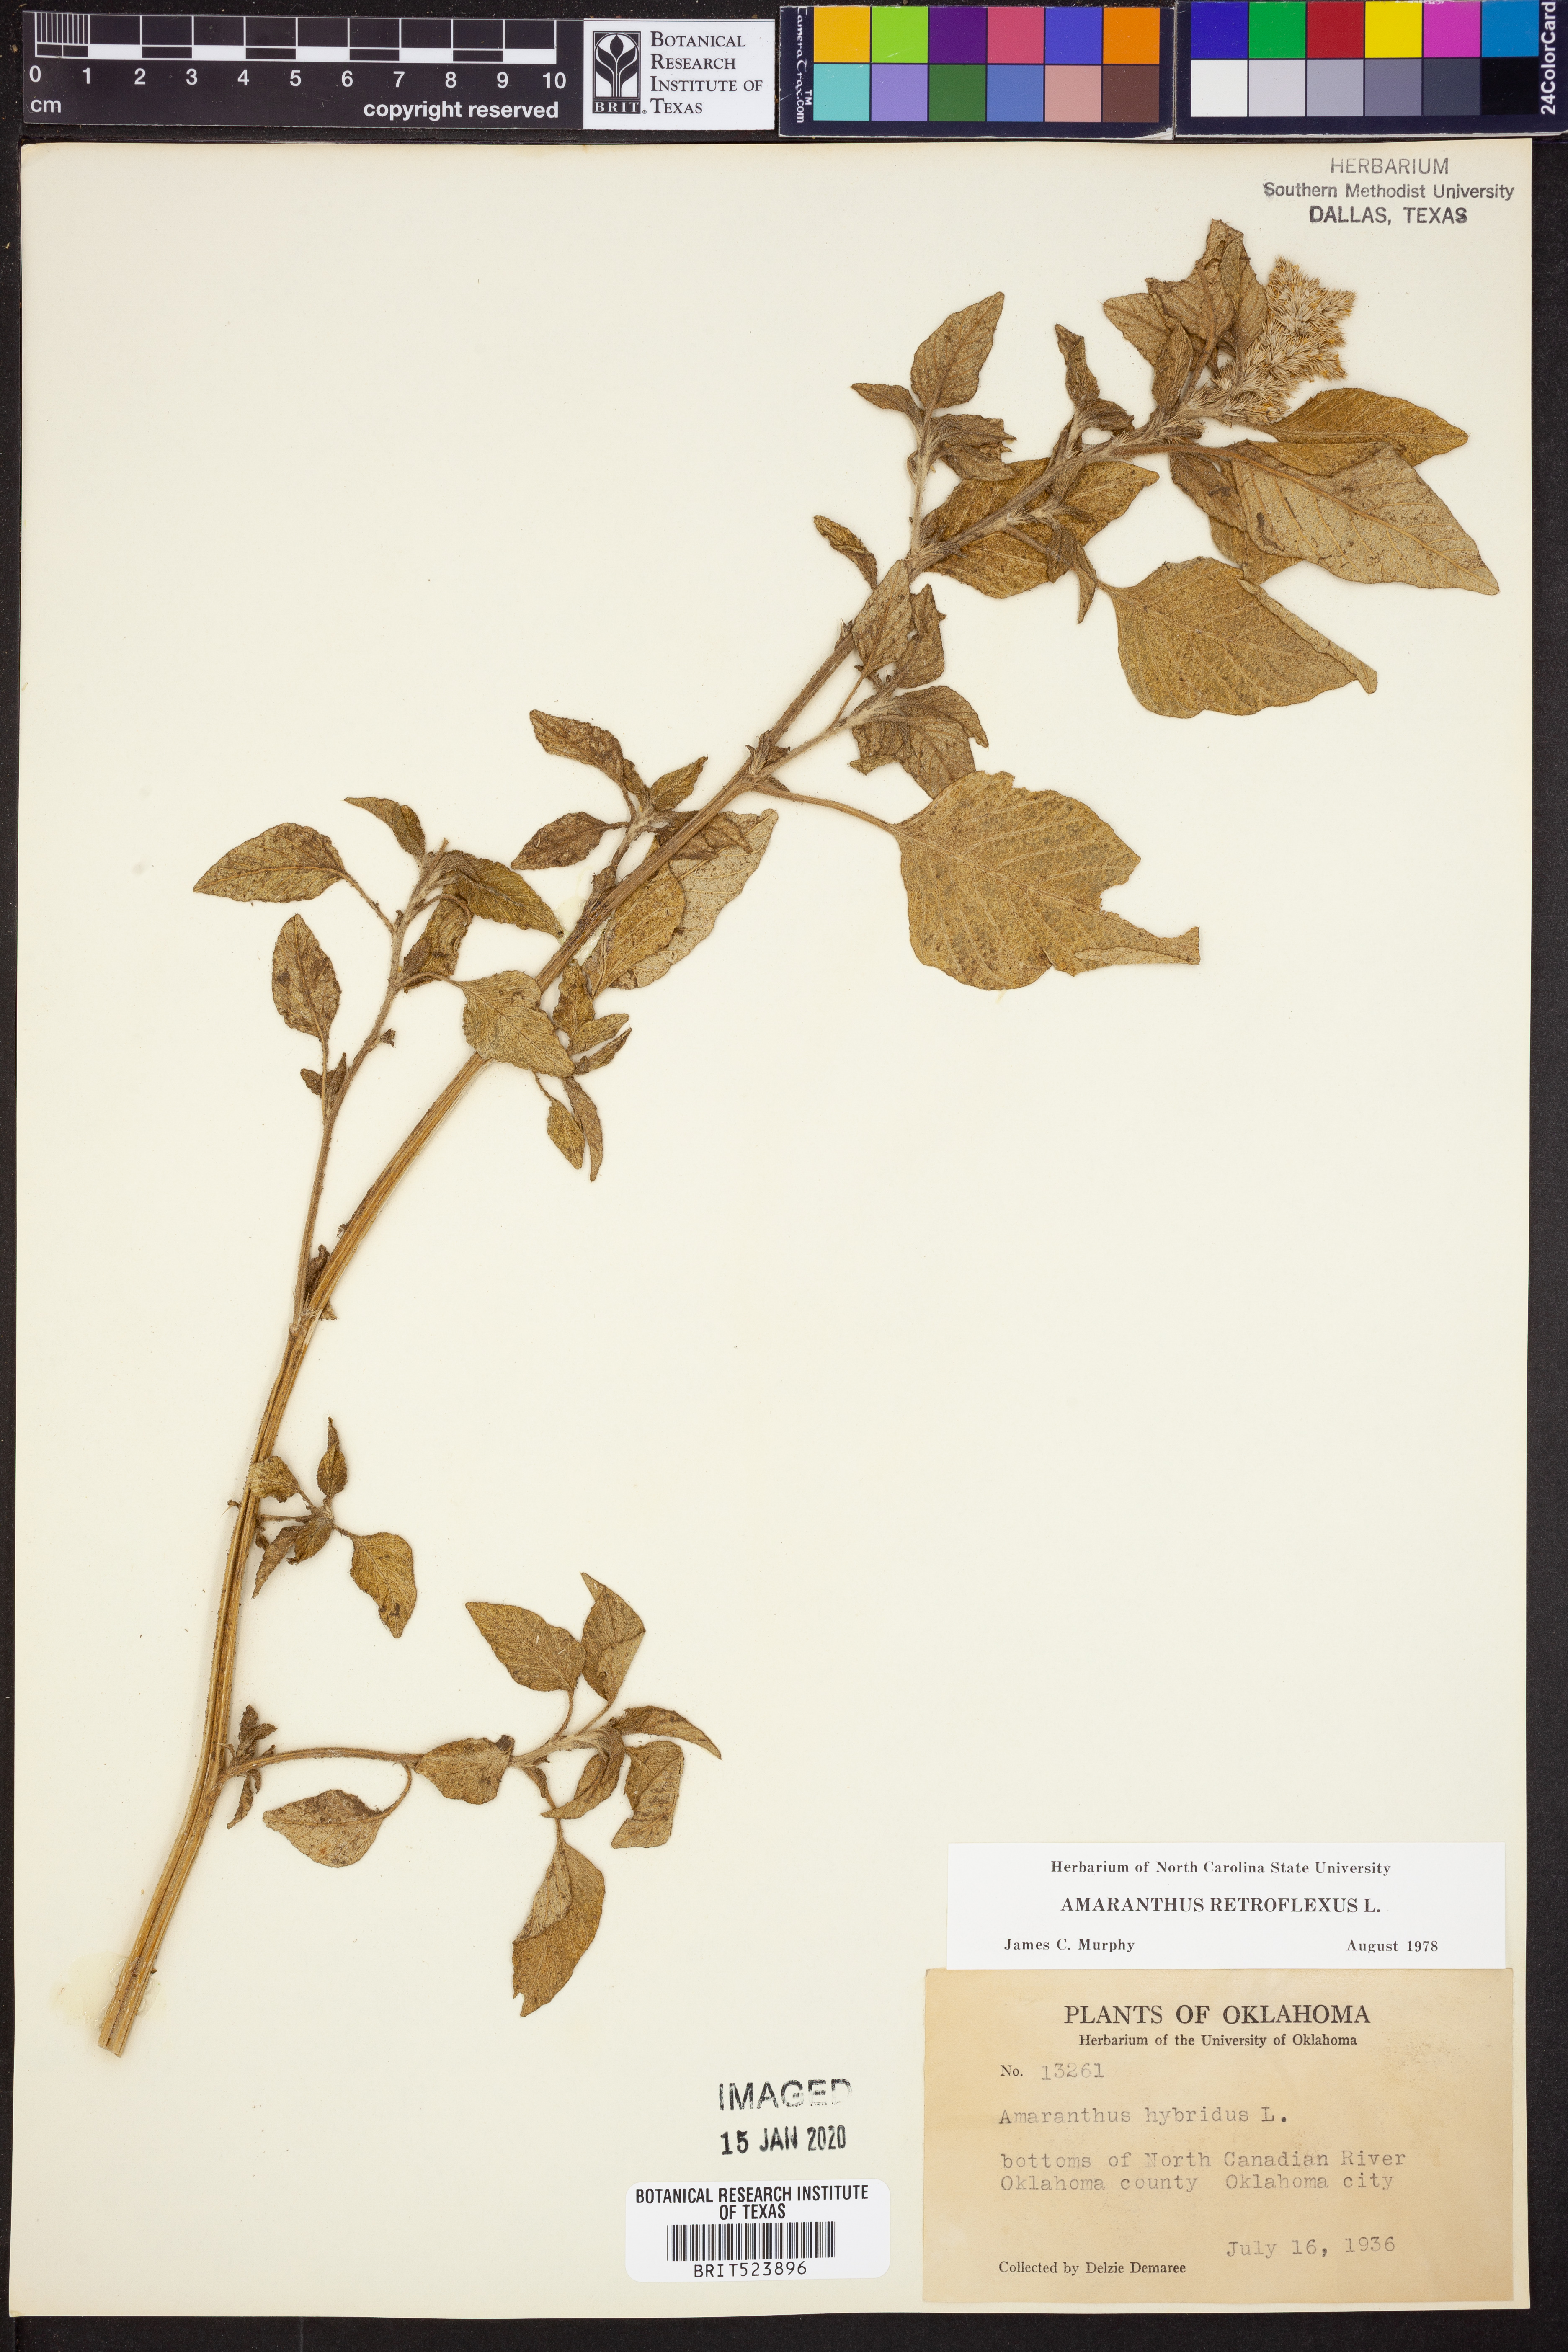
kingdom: Plantae
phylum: Tracheophyta
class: Magnoliopsida
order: Caryophyllales
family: Amaranthaceae
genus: Amaranthus
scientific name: Amaranthus retroflexus
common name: Redroot amaranth
